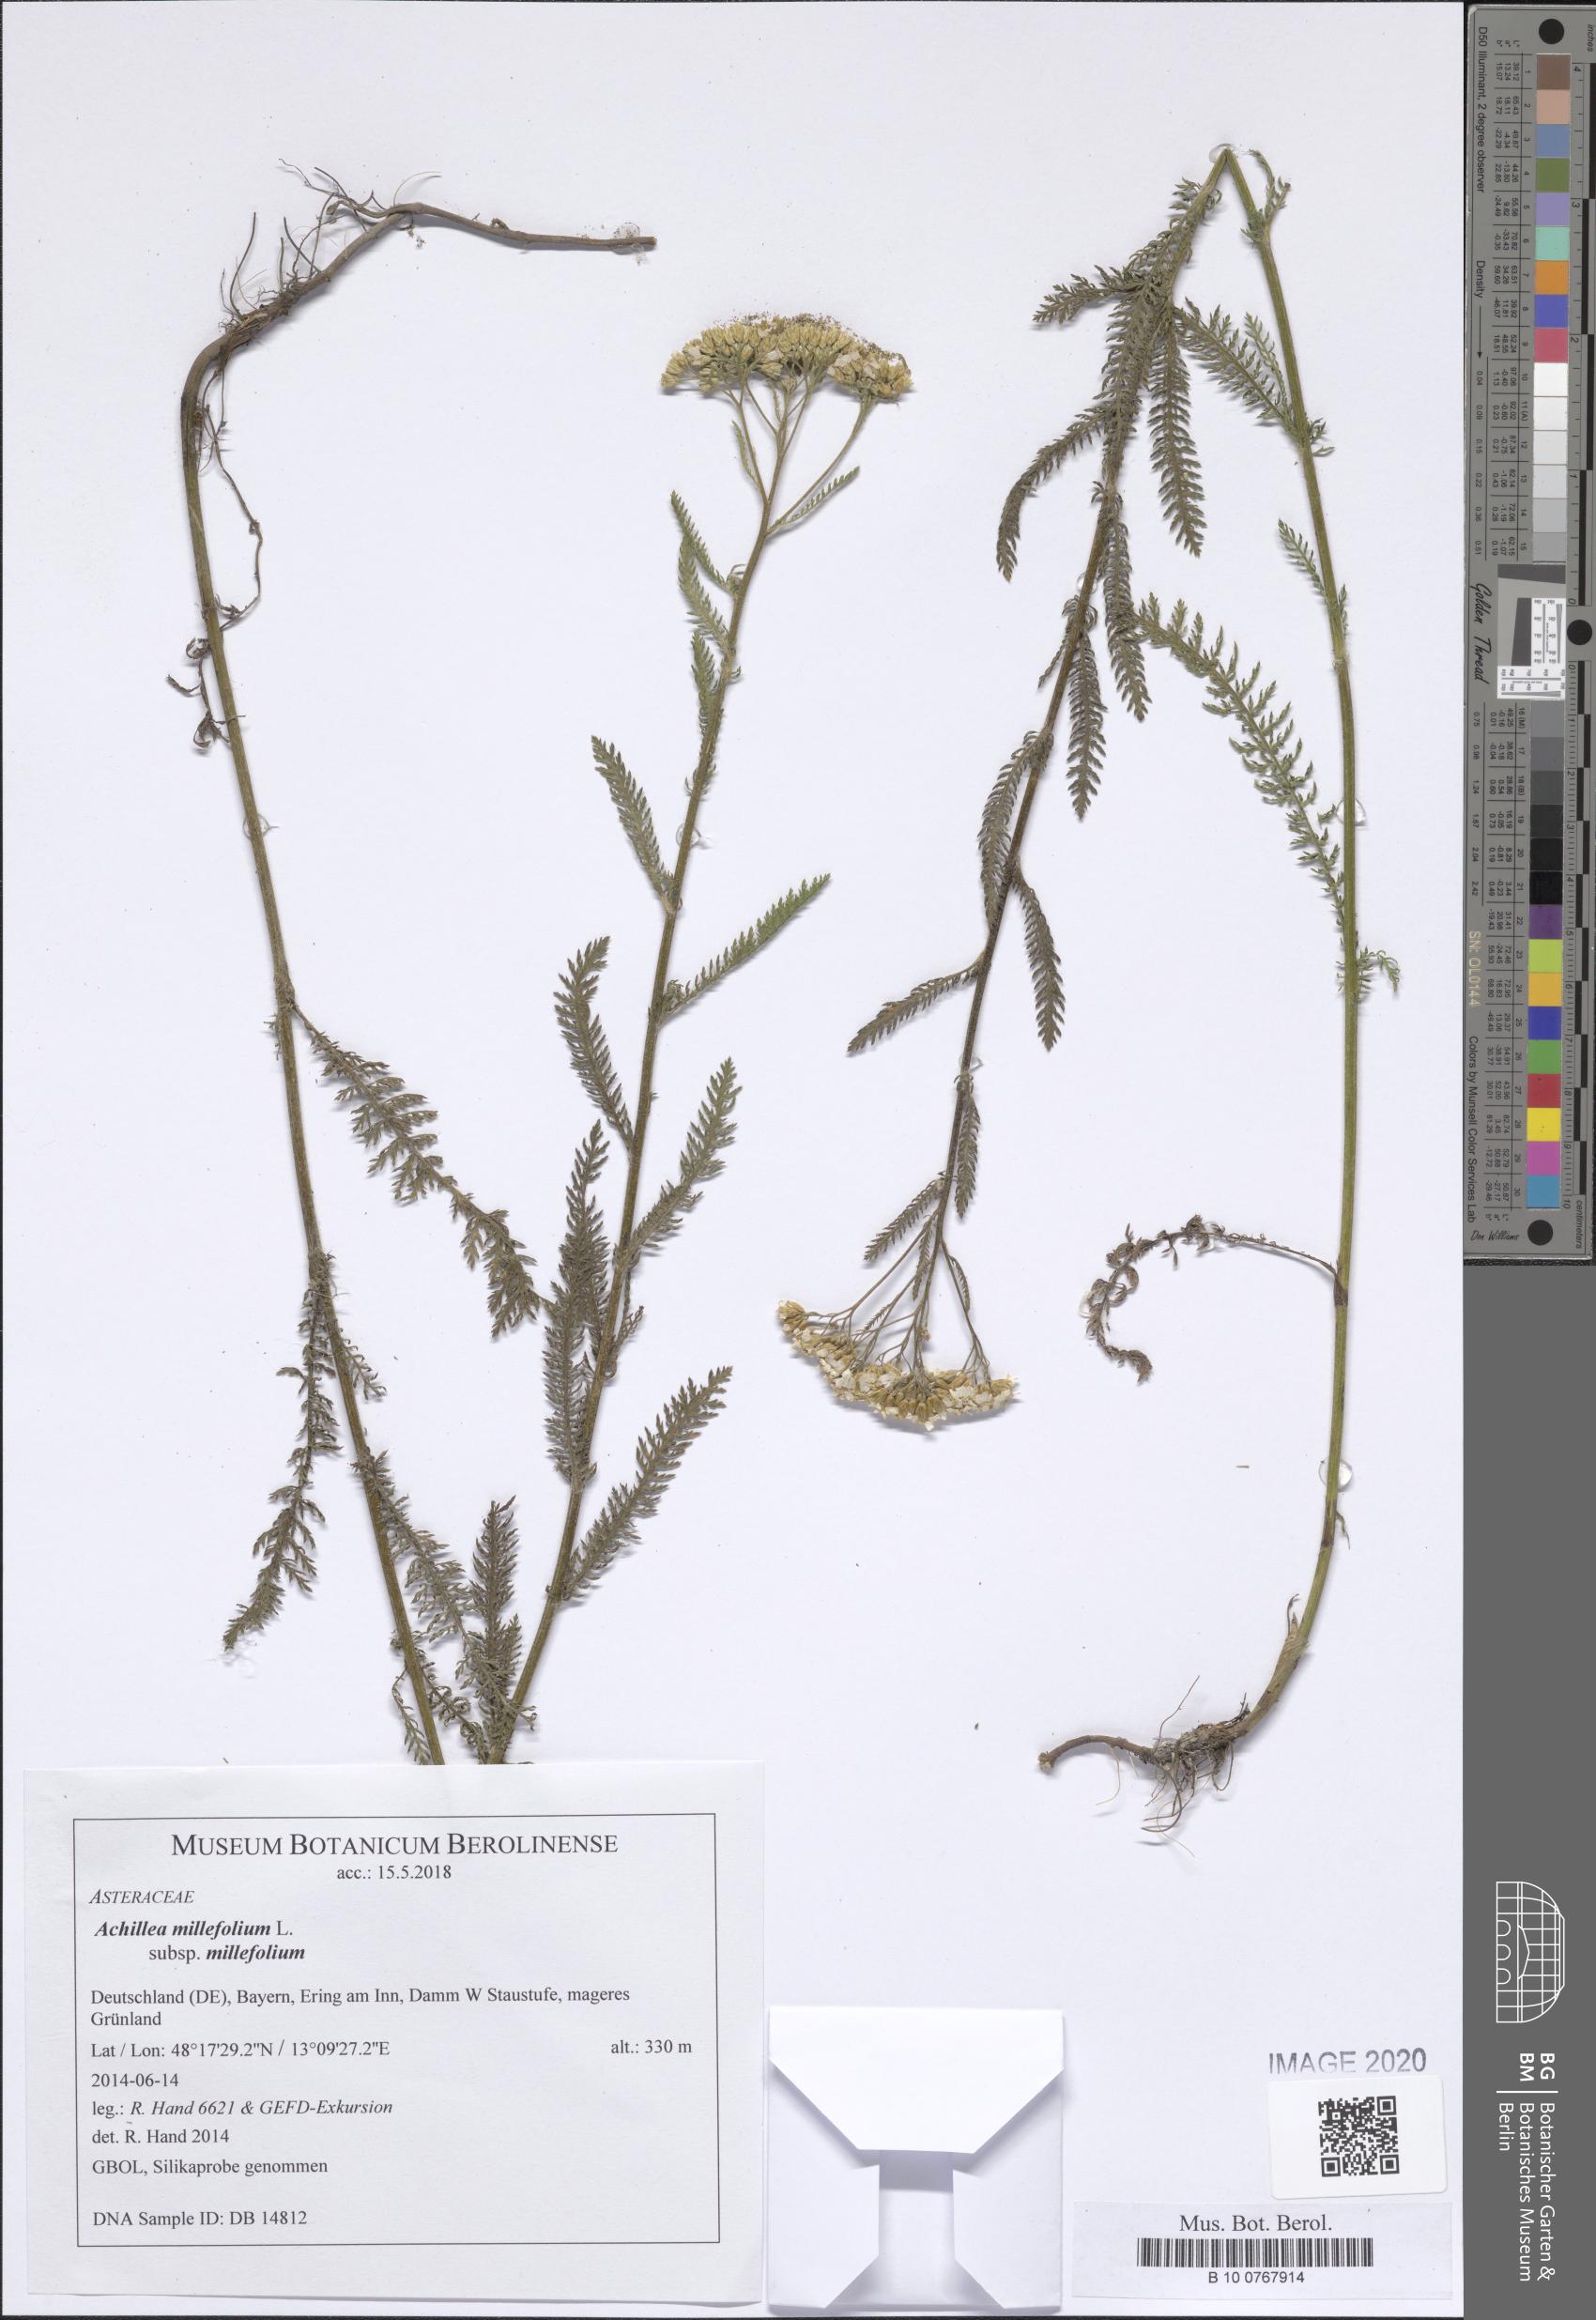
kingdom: Plantae
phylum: Tracheophyta
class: Magnoliopsida
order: Asterales
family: Asteraceae
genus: Achillea
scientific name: Achillea millefolium
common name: Yarrow
